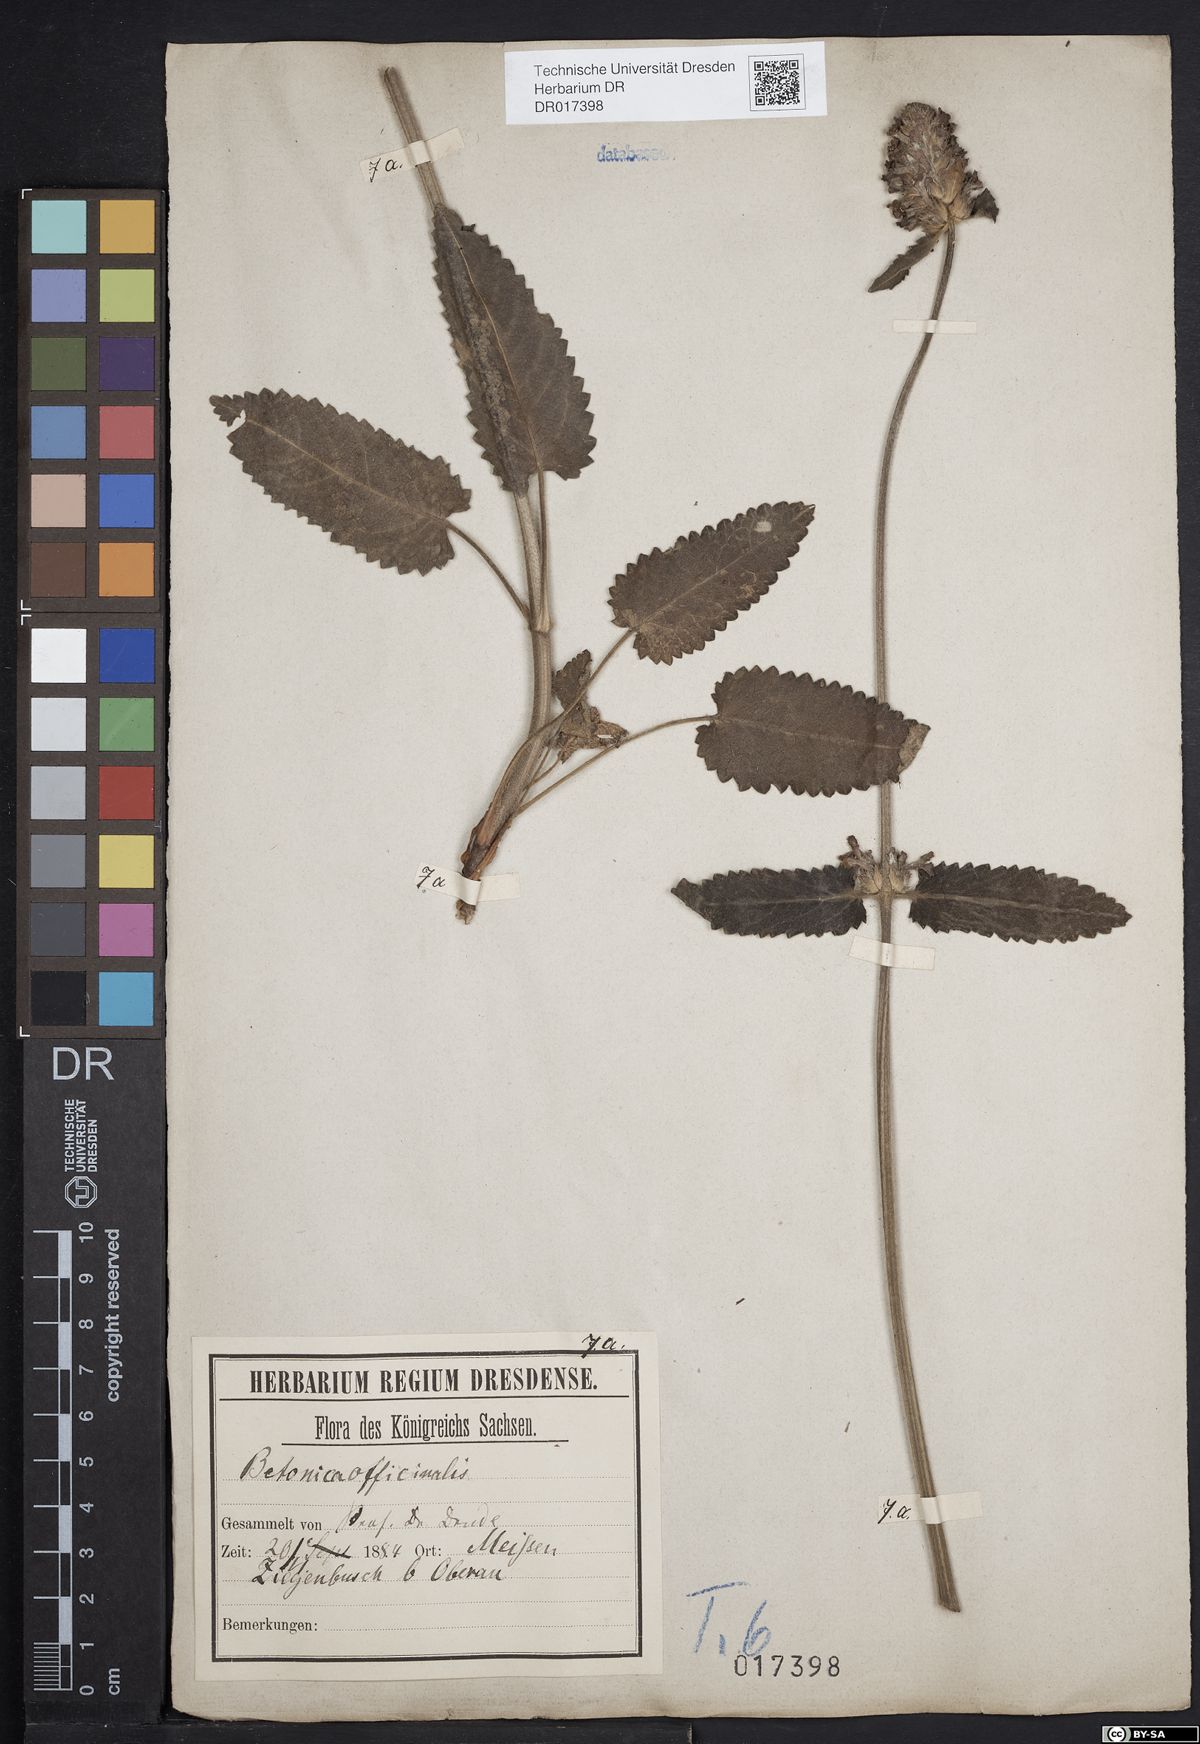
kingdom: Plantae
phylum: Tracheophyta
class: Magnoliopsida
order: Lamiales
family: Lamiaceae
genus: Betonica
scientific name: Betonica officinalis
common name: Bishop's-wort
